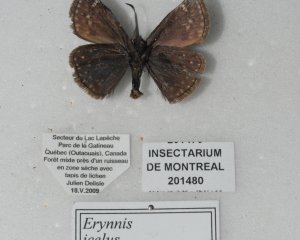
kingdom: Animalia
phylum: Arthropoda
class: Insecta
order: Lepidoptera
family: Hesperiidae
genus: Erynnis
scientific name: Erynnis icelus
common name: Dreamy Duskywing
